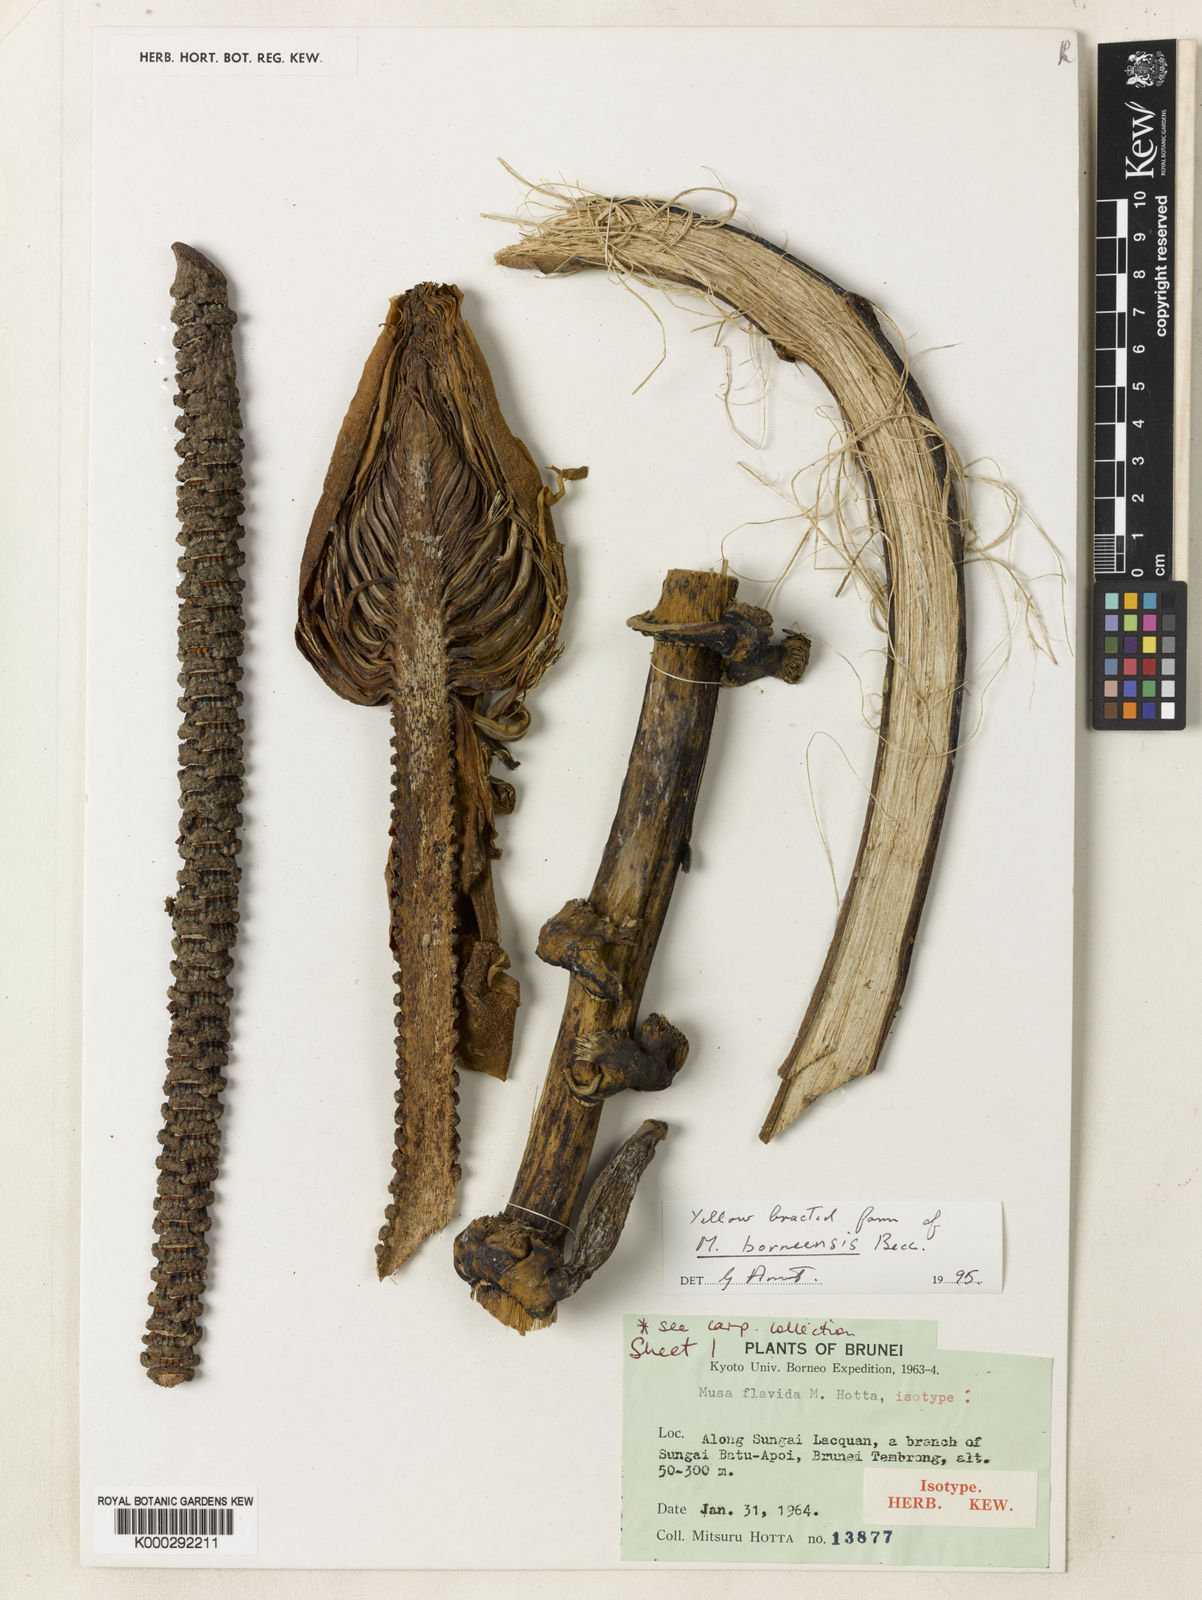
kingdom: Plantae
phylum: Tracheophyta
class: Liliopsida
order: Zingiberales
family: Musaceae
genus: Musa
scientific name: Musa borneensis
